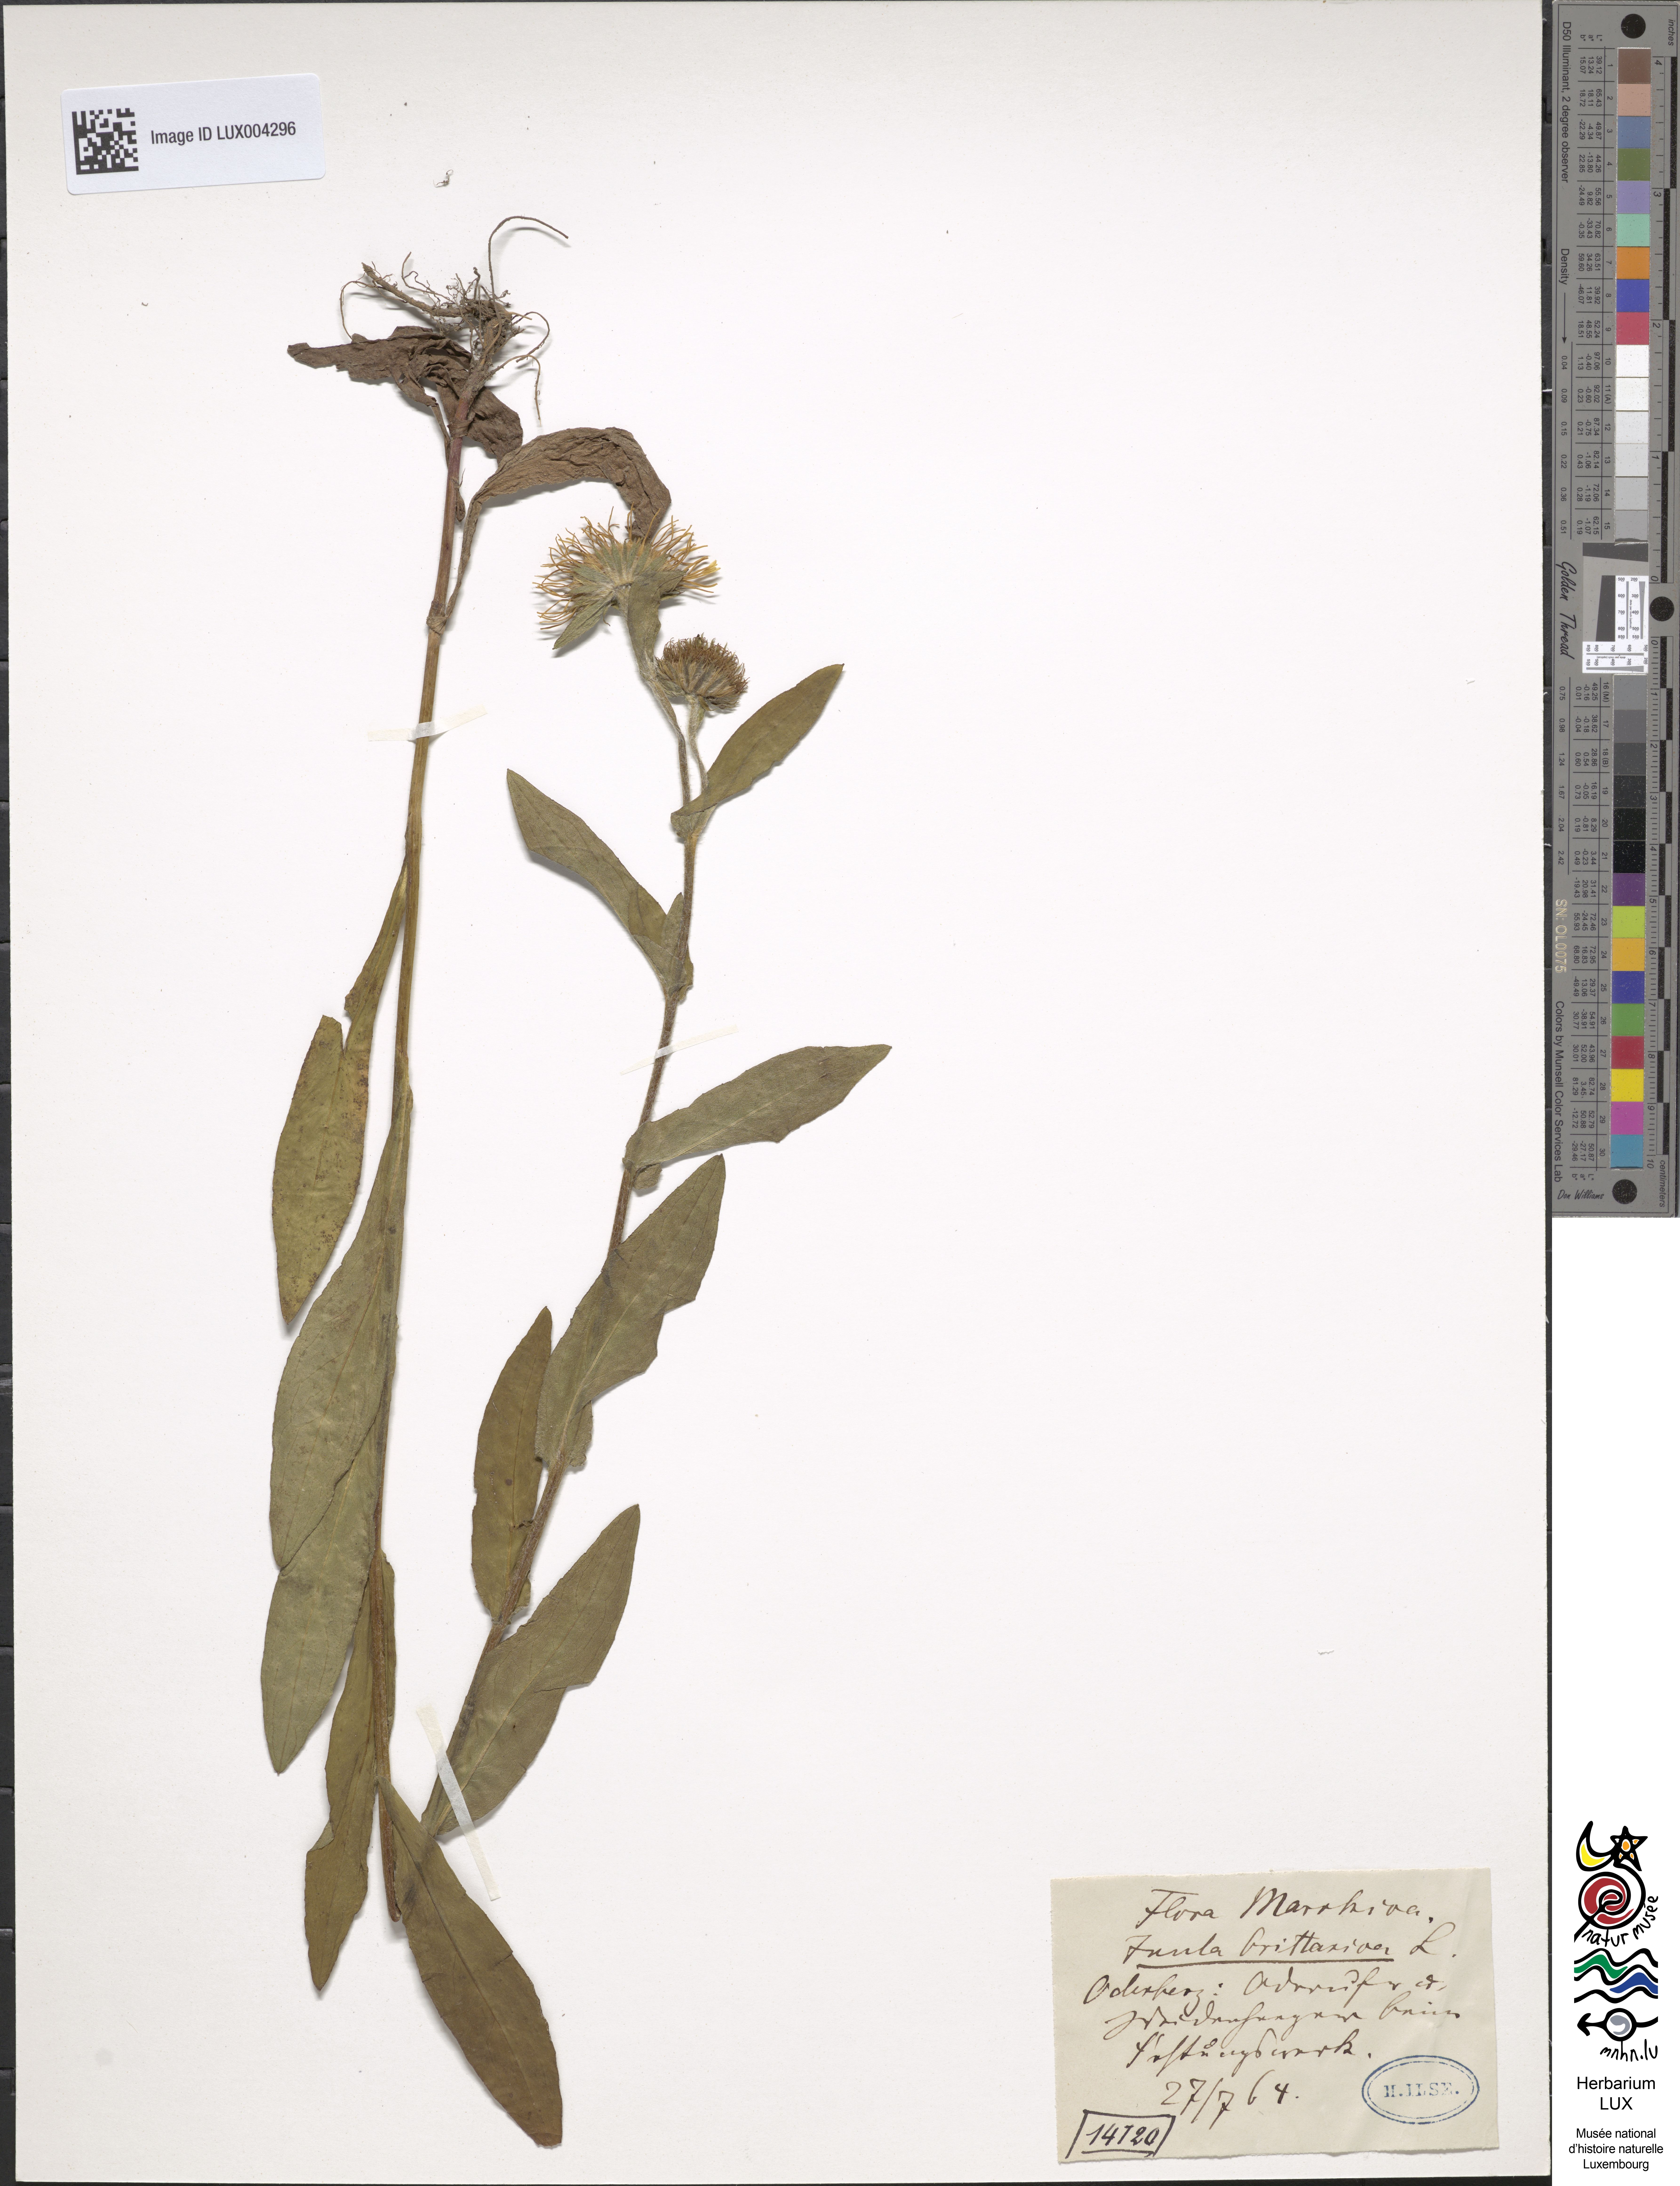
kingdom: Plantae
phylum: Tracheophyta
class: Magnoliopsida
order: Asterales
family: Asteraceae
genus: Pentanema
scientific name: Pentanema britannicum
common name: British elecampane
